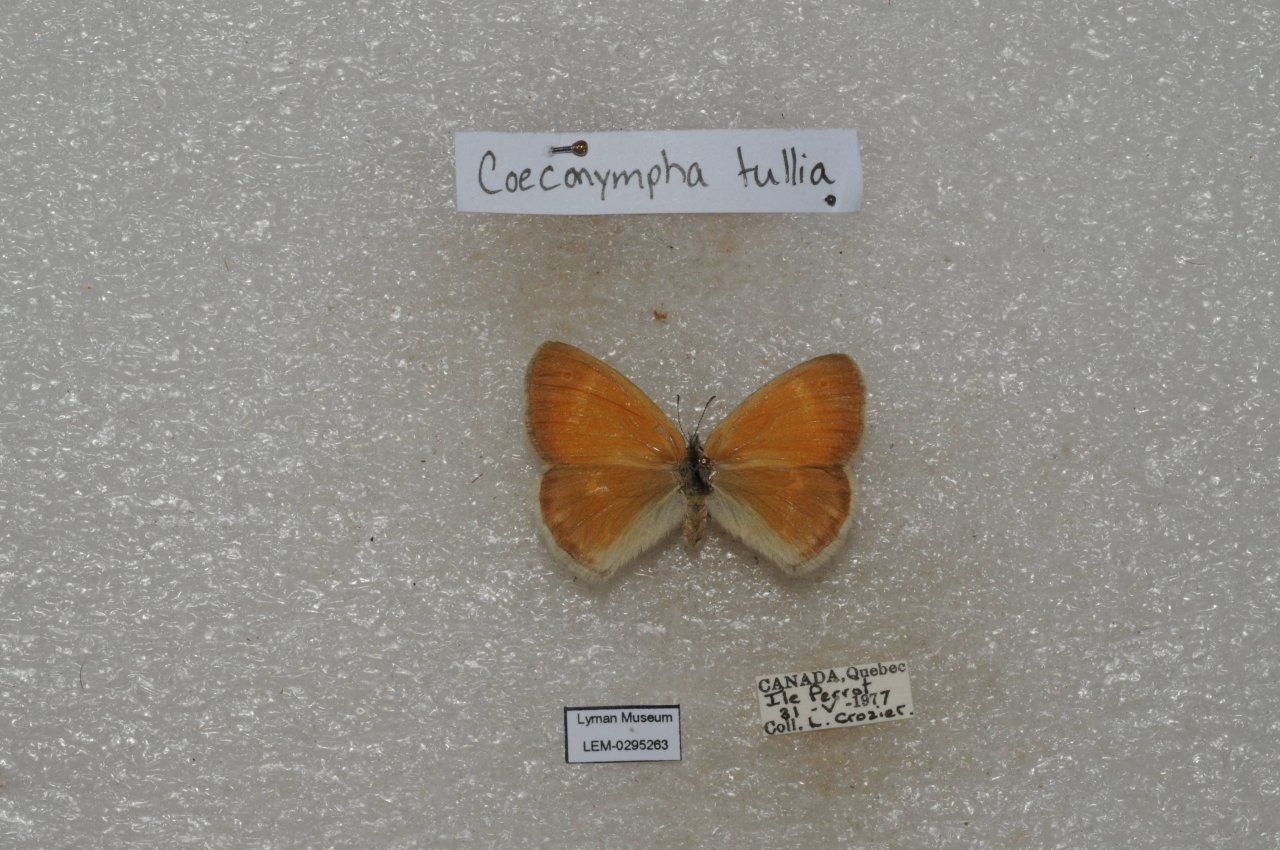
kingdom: Animalia
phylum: Arthropoda
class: Insecta
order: Lepidoptera
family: Nymphalidae
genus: Coenonympha
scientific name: Coenonympha tullia
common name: Large Heath
